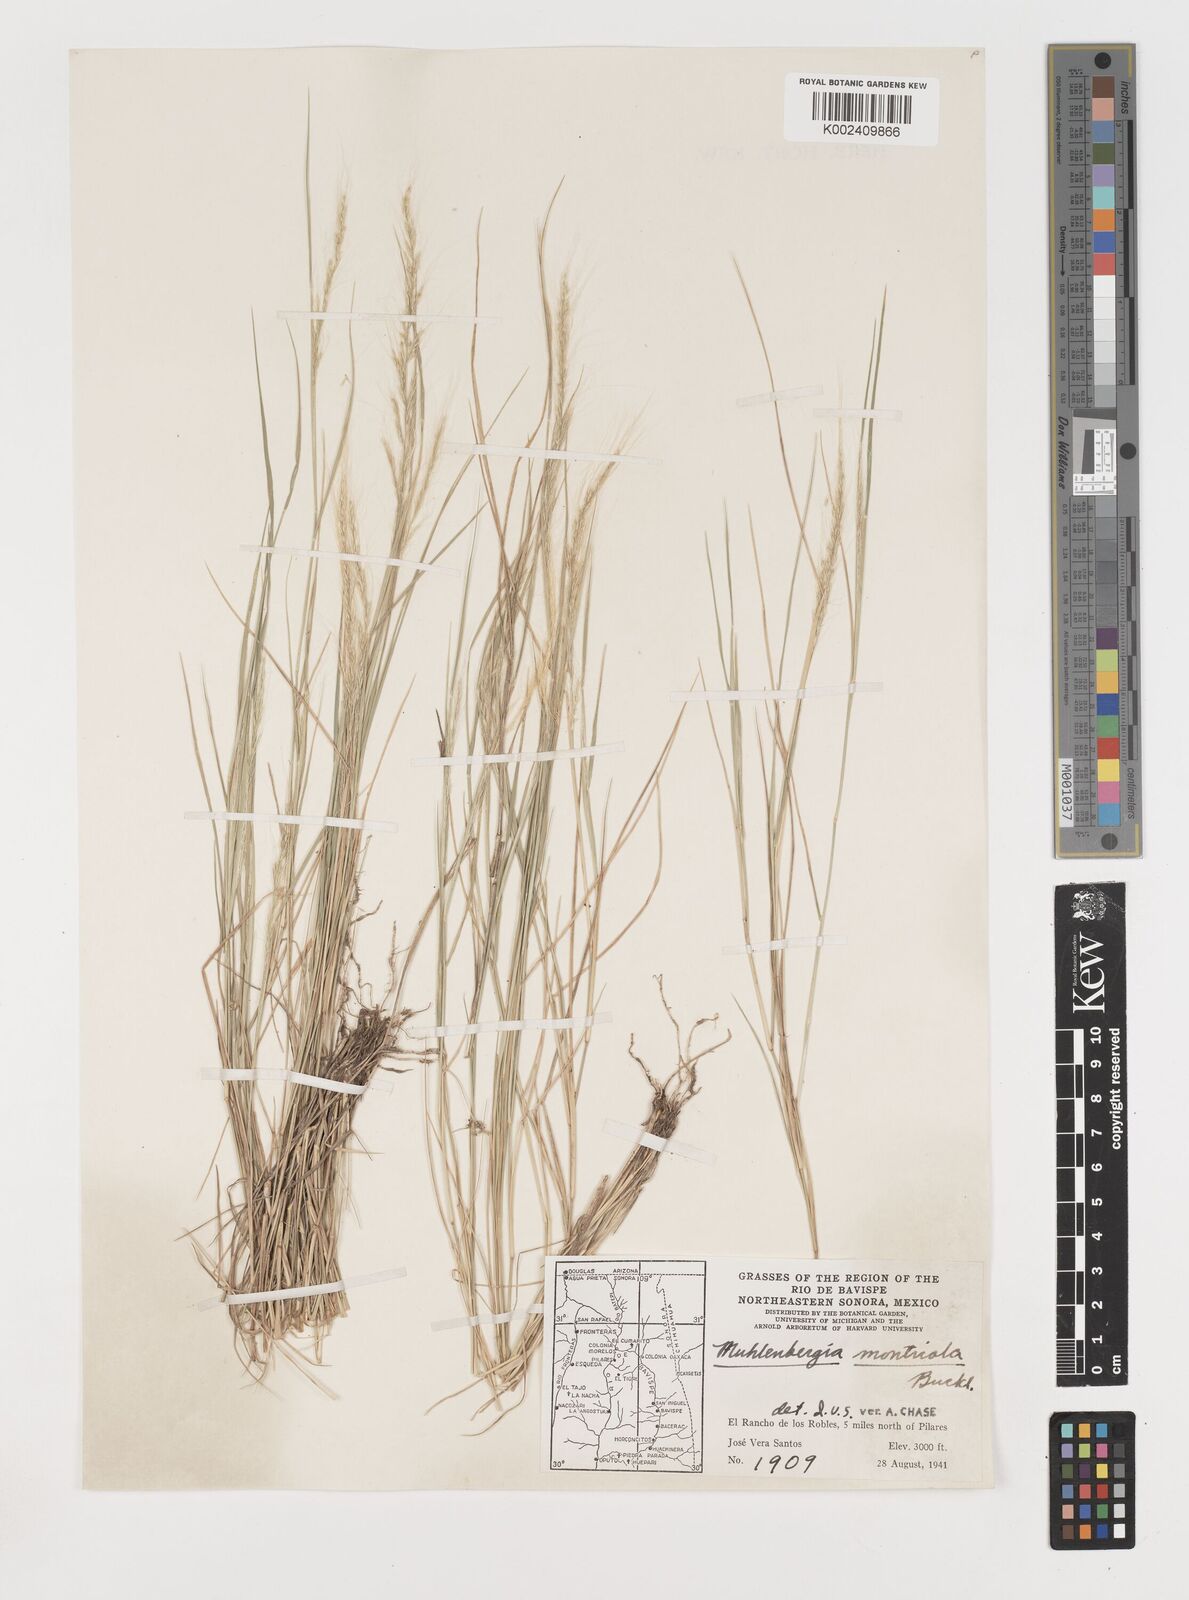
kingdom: Plantae
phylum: Tracheophyta
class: Liliopsida
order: Poales
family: Poaceae
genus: Muhlenbergia
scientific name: Muhlenbergia tenuifolia
